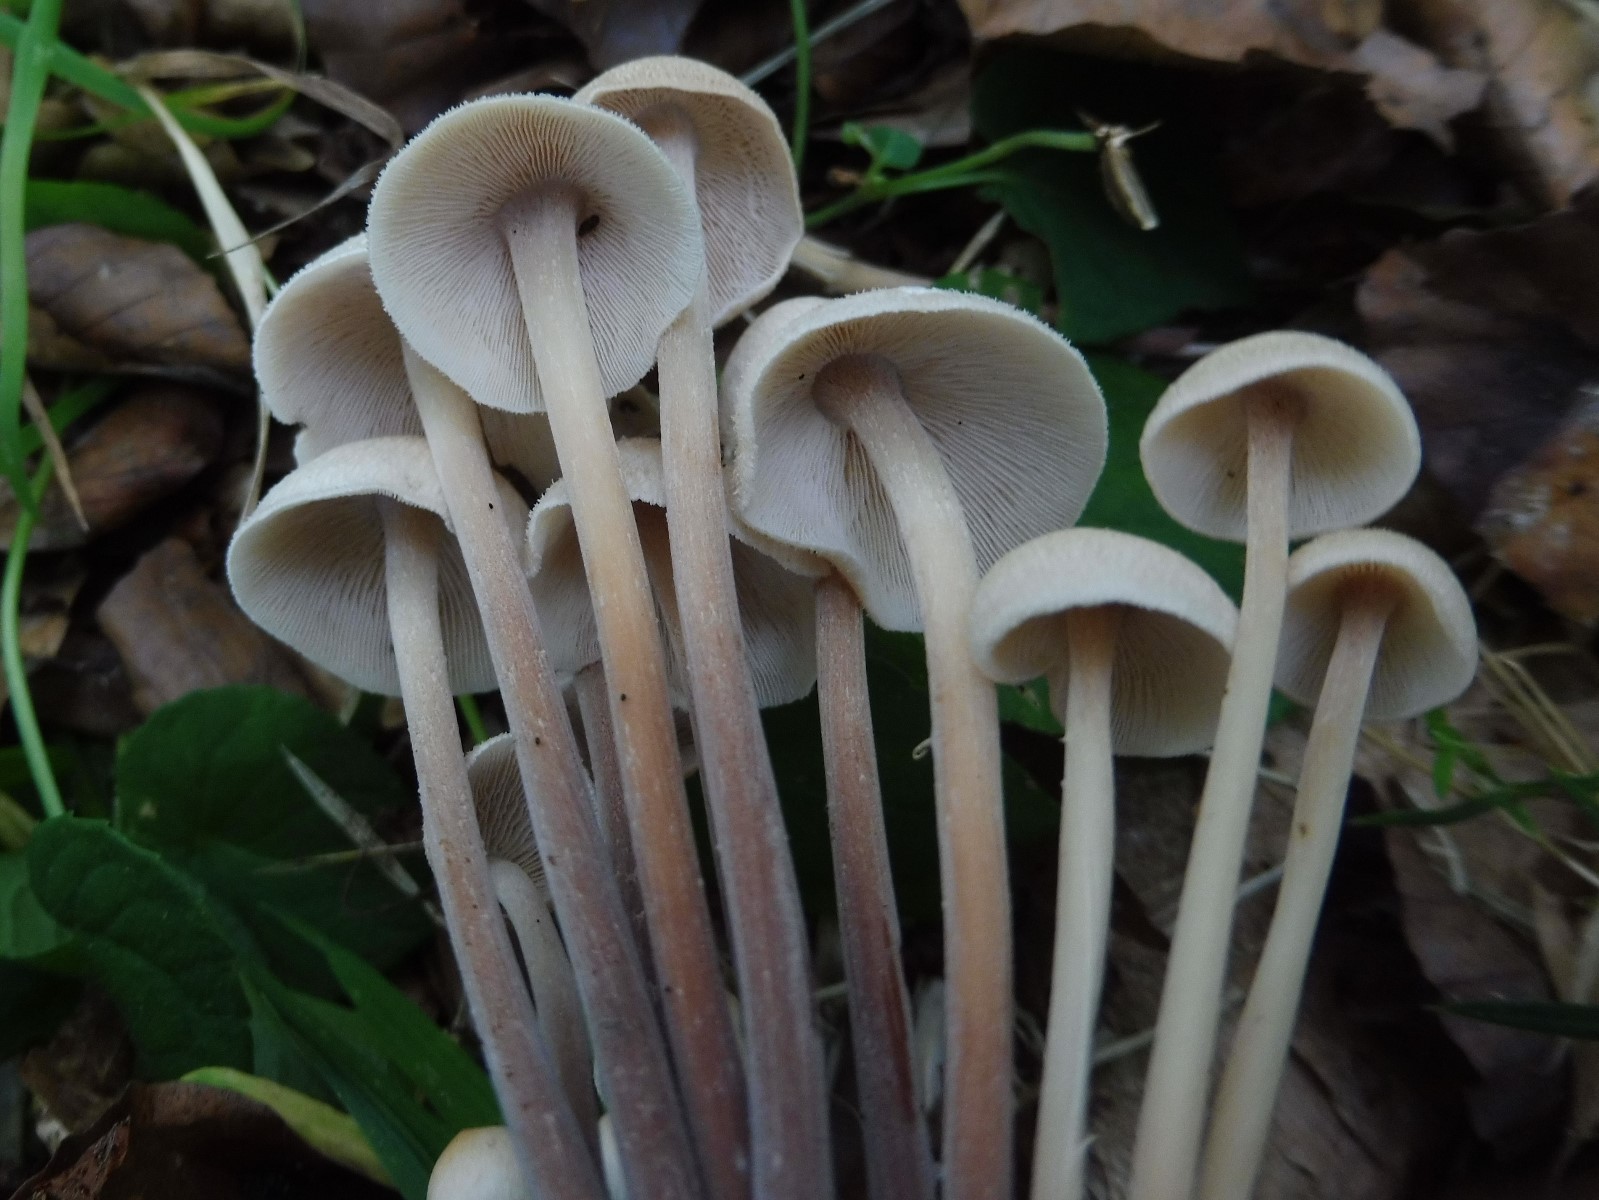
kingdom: Fungi
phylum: Basidiomycota
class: Agaricomycetes
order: Agaricales
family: Omphalotaceae
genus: Collybiopsis
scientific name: Collybiopsis confluens
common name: knippe-fladhat
